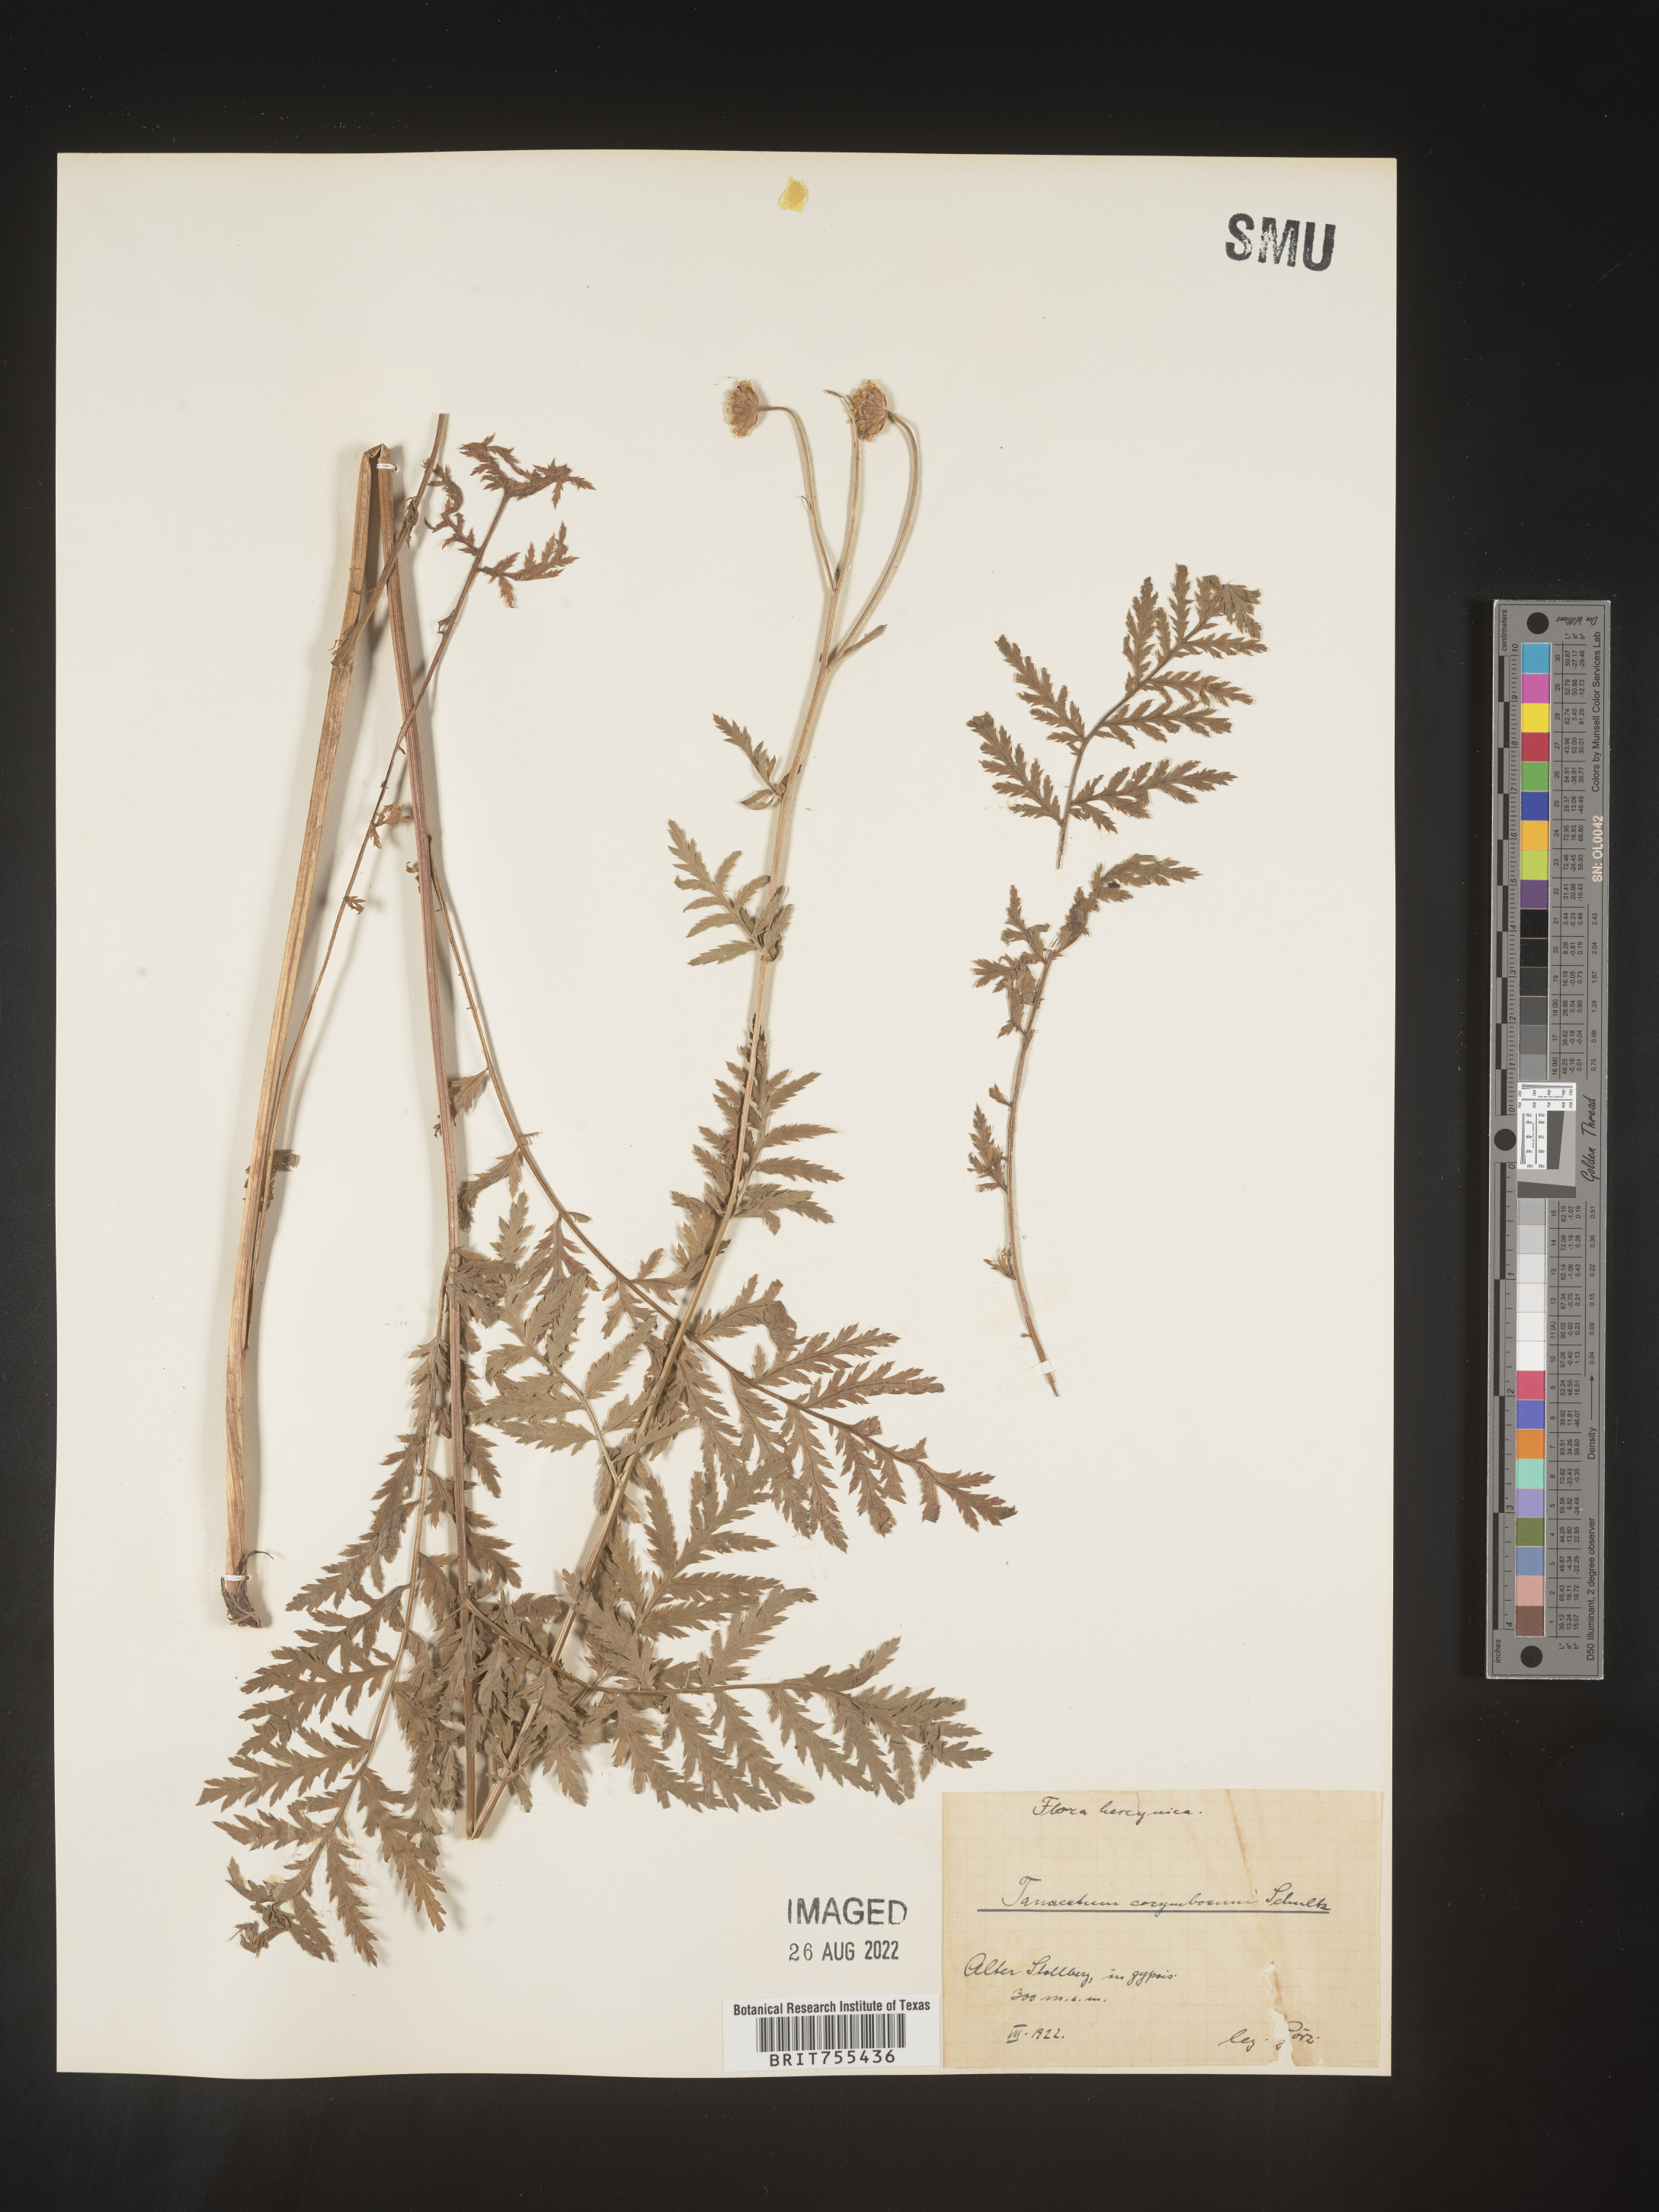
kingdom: Plantae
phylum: Tracheophyta
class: Magnoliopsida
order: Asterales
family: Asteraceae
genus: Tanacetum
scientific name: Tanacetum
